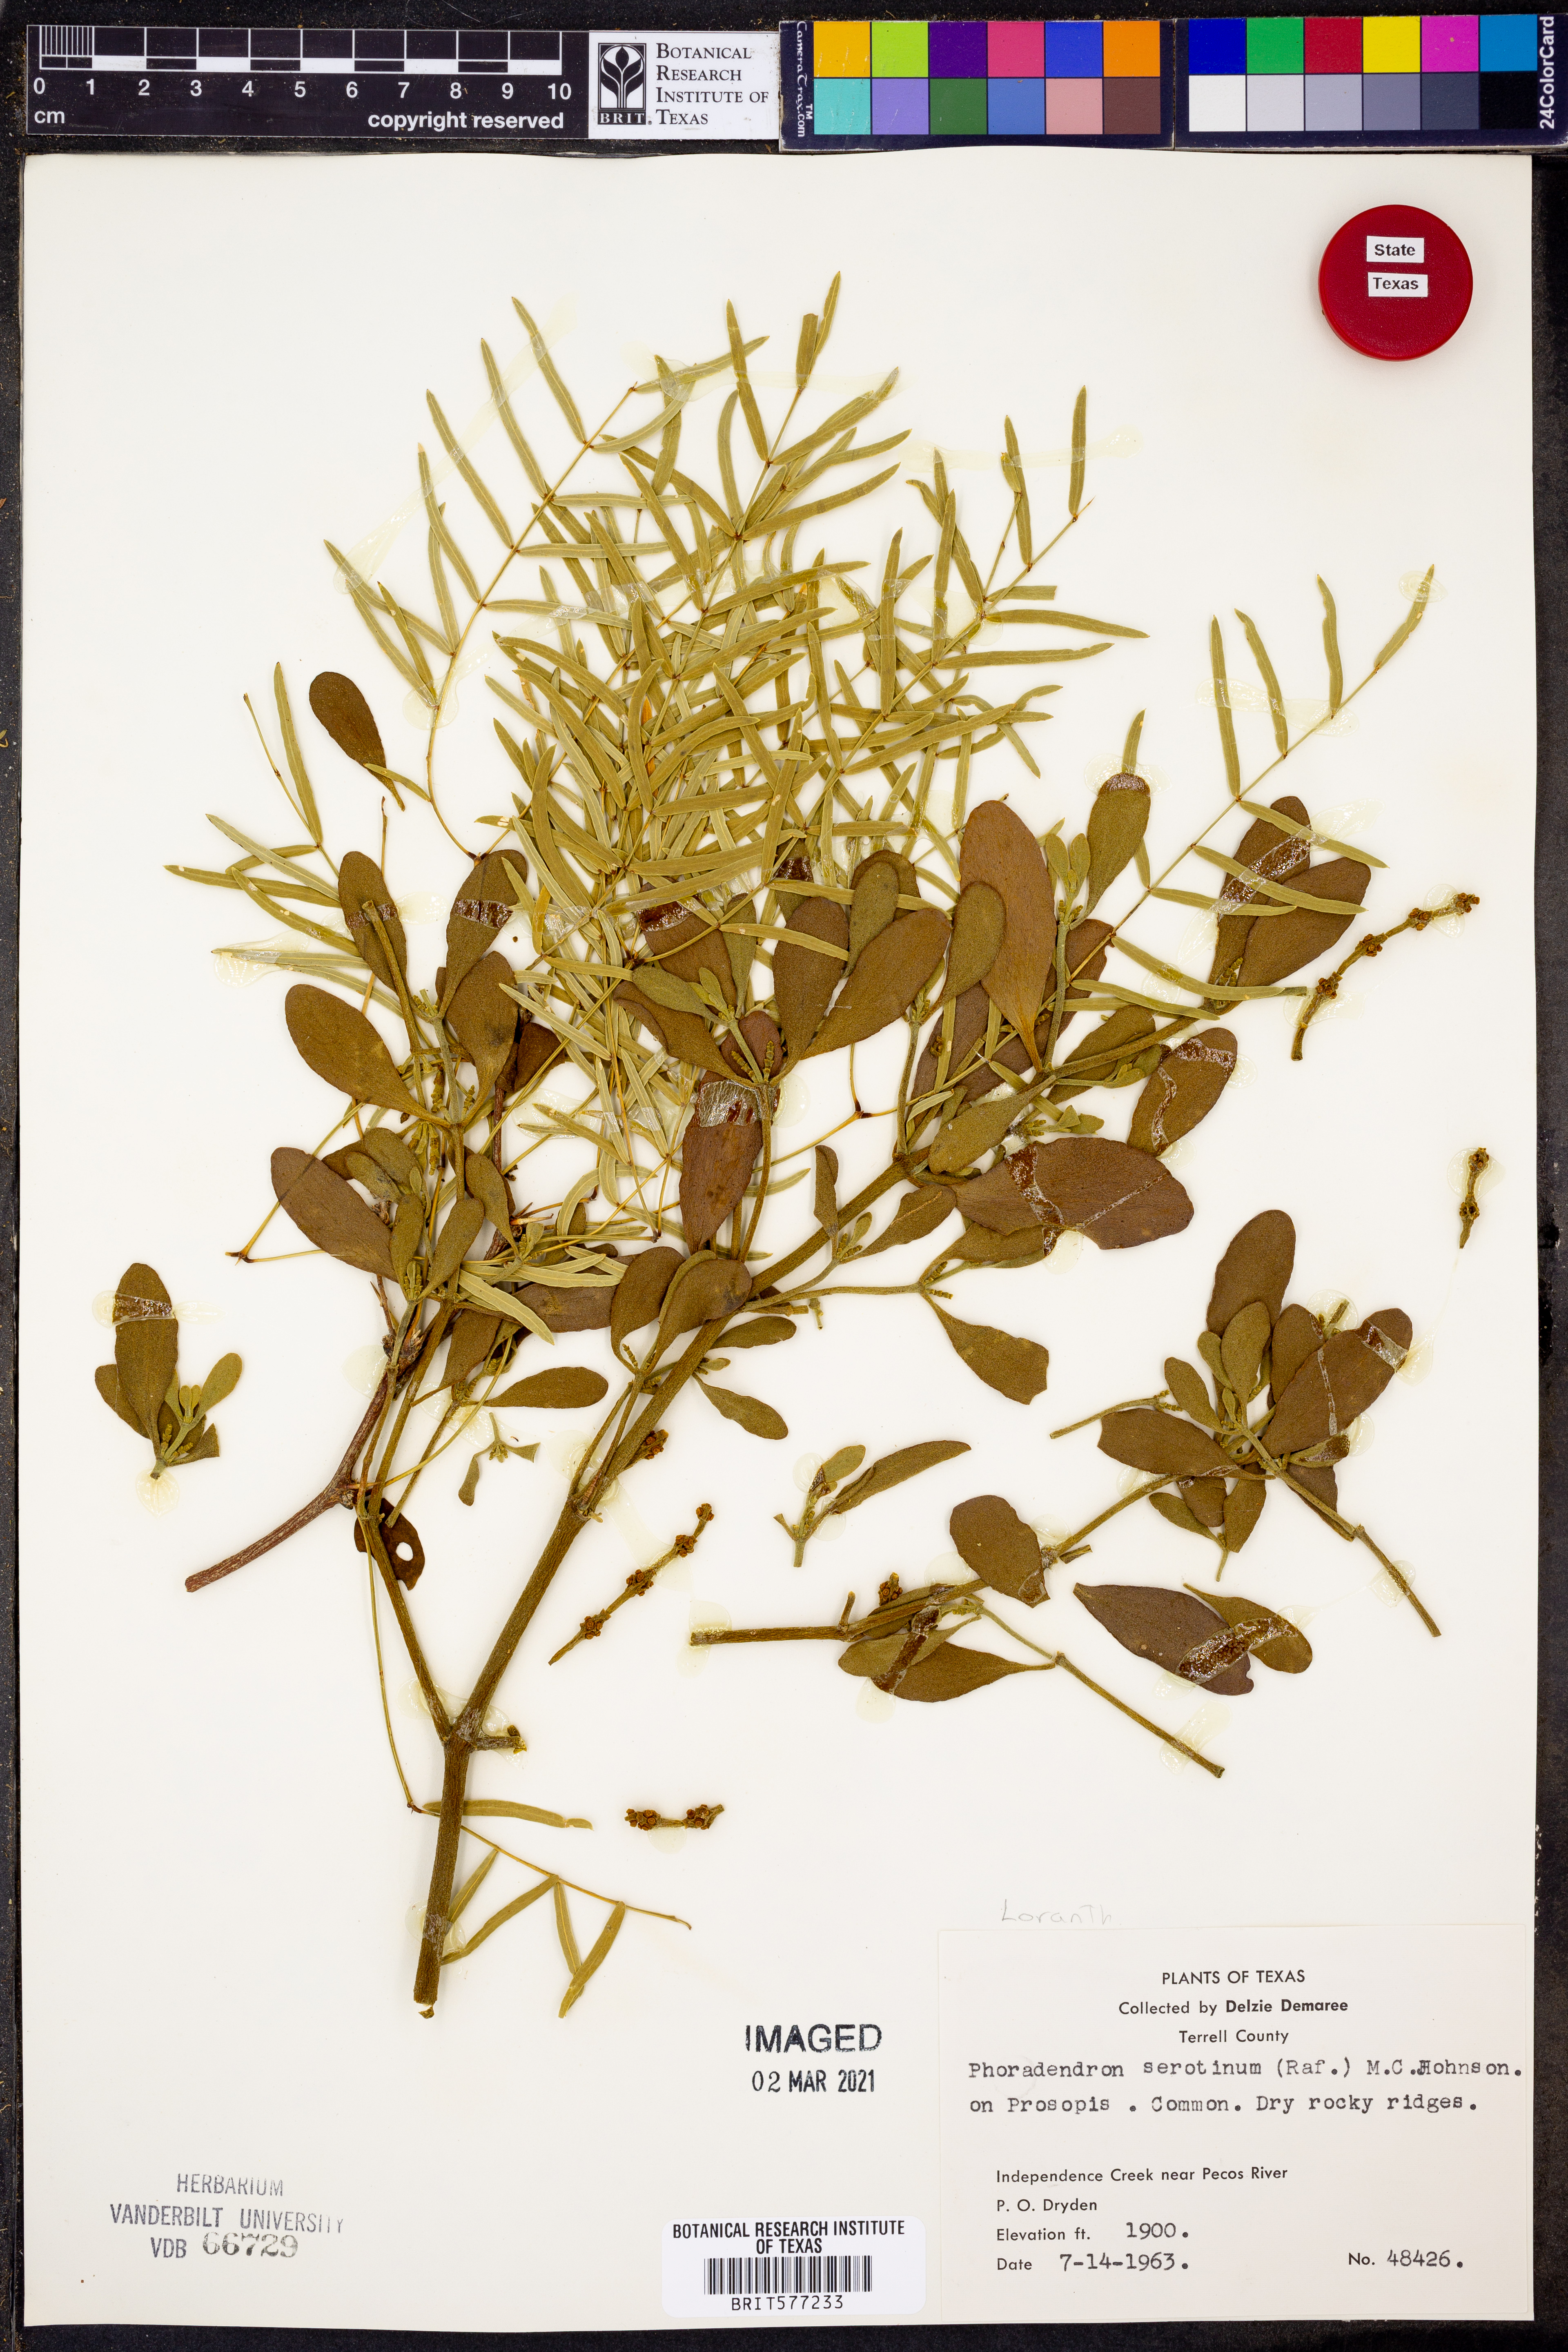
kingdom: Plantae
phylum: Tracheophyta
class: Magnoliopsida
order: Santalales
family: Viscaceae
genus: Phoradendron
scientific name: Phoradendron leucarpum
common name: Pacific mistletoe
